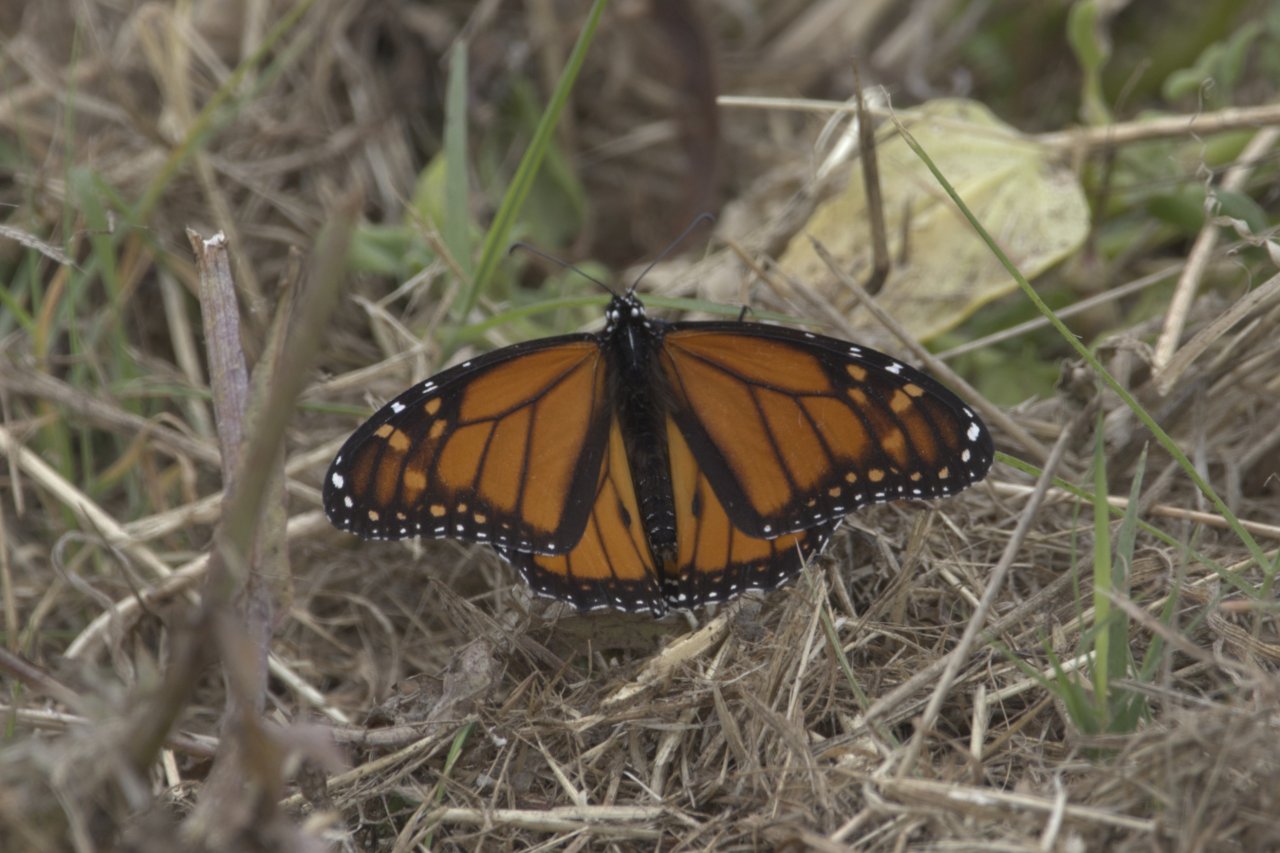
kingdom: Animalia
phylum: Arthropoda
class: Insecta
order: Lepidoptera
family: Nymphalidae
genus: Danaus
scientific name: Danaus plexippus
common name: Monarch
